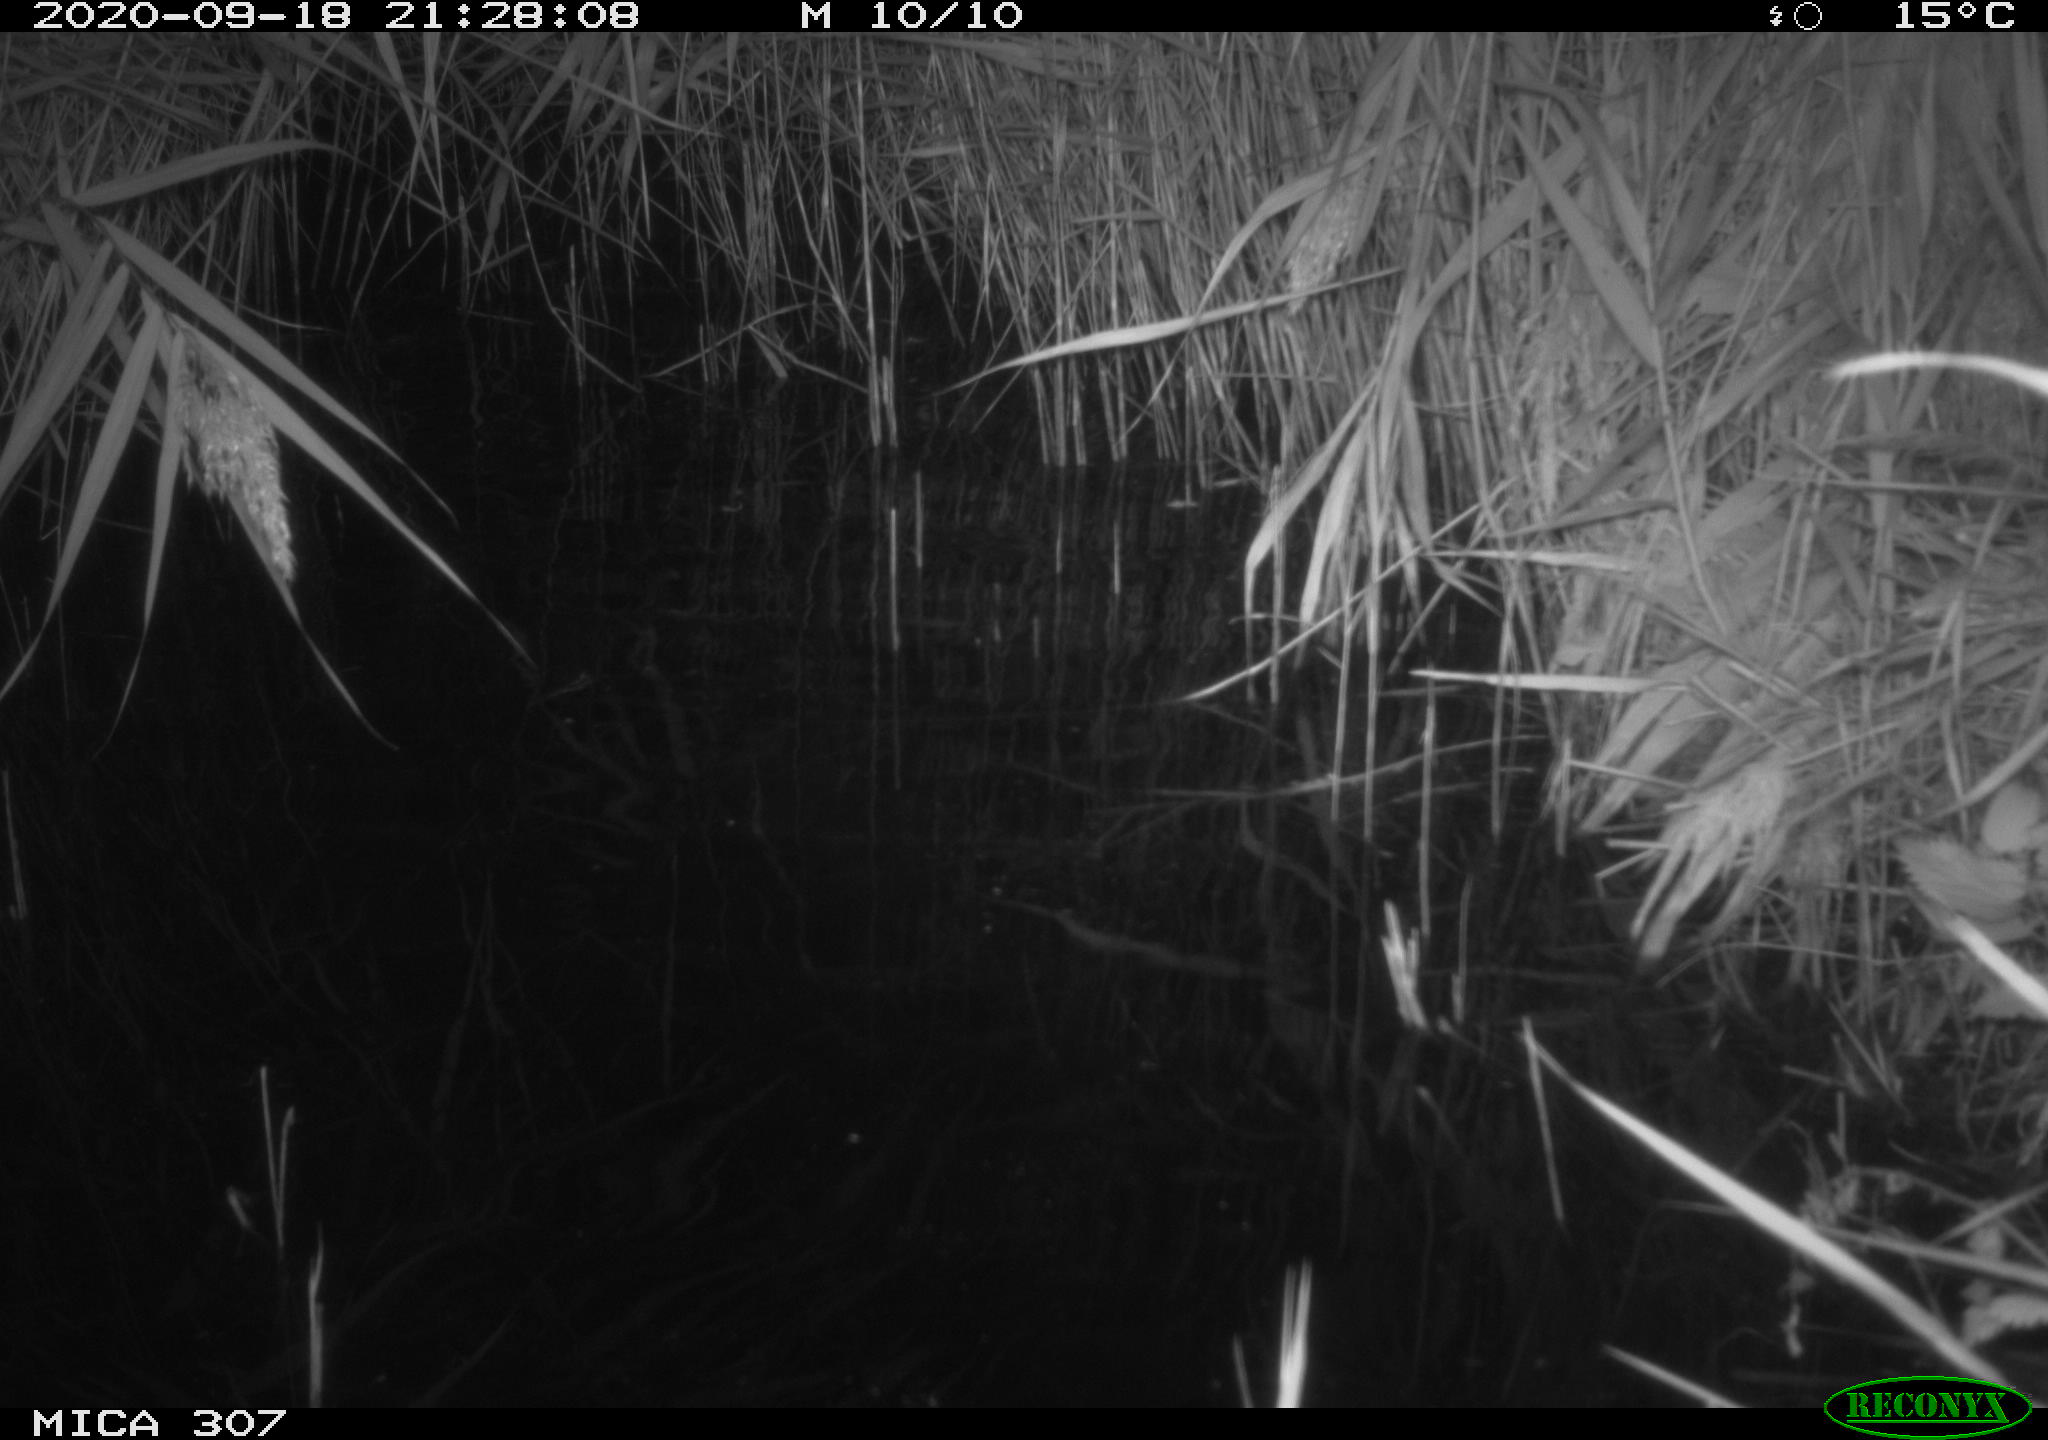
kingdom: Animalia
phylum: Chordata
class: Mammalia
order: Rodentia
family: Muridae
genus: Rattus
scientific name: Rattus norvegicus
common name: Brown rat
